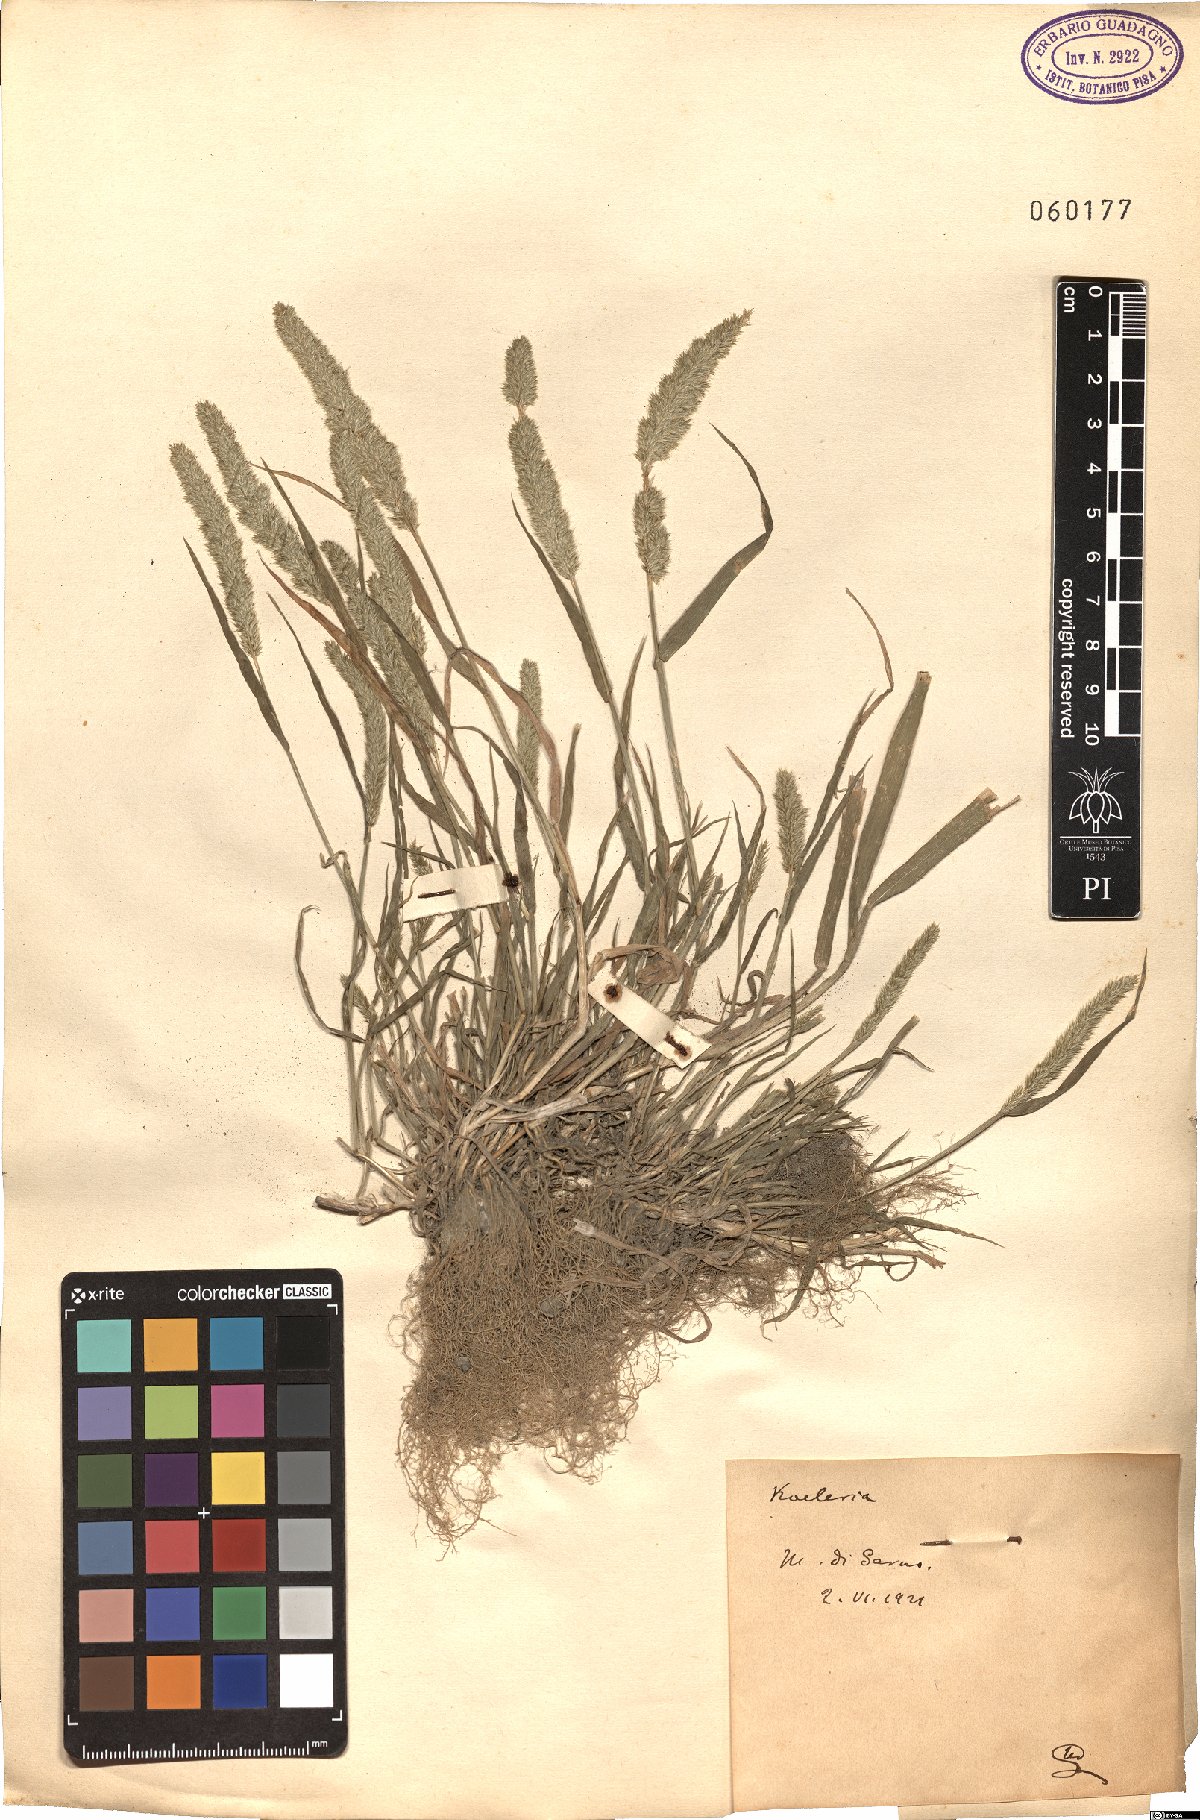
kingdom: Plantae
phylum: Tracheophyta
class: Liliopsida
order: Poales
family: Poaceae
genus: Koeleria
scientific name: Koeleria
